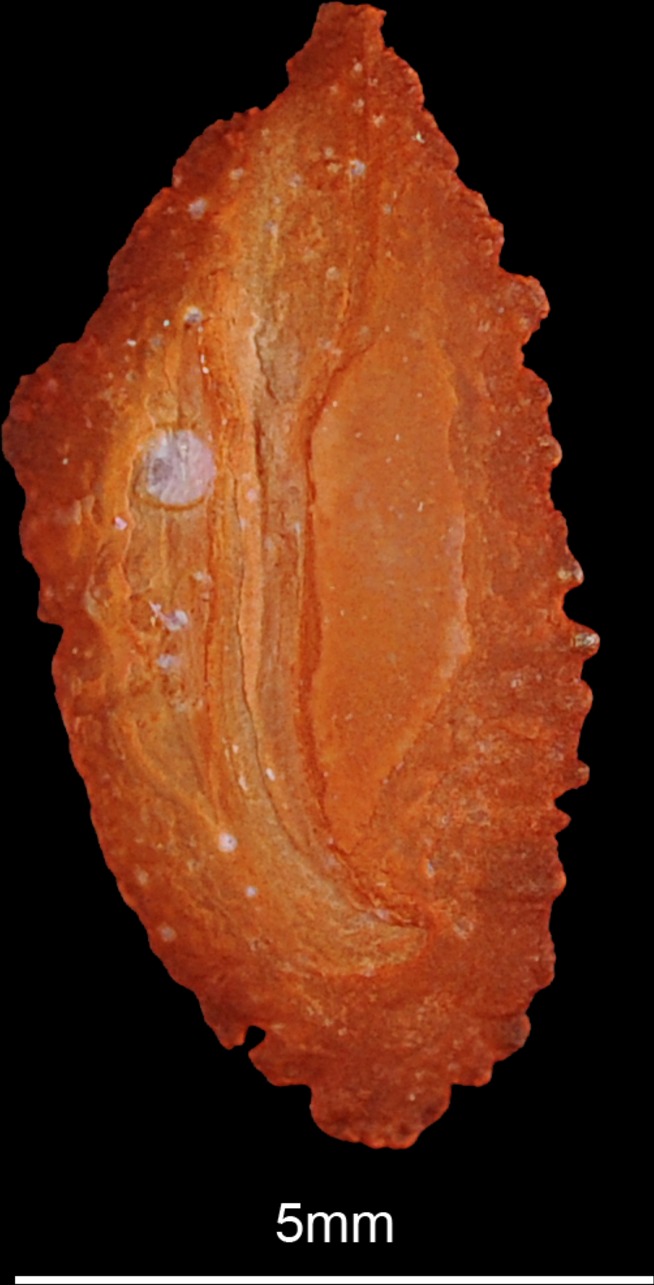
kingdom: Animalia
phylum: Chordata
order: Perciformes
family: Centrarchidae
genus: Micropterus
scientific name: Micropterus dolomieu
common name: Smallmouth bass
